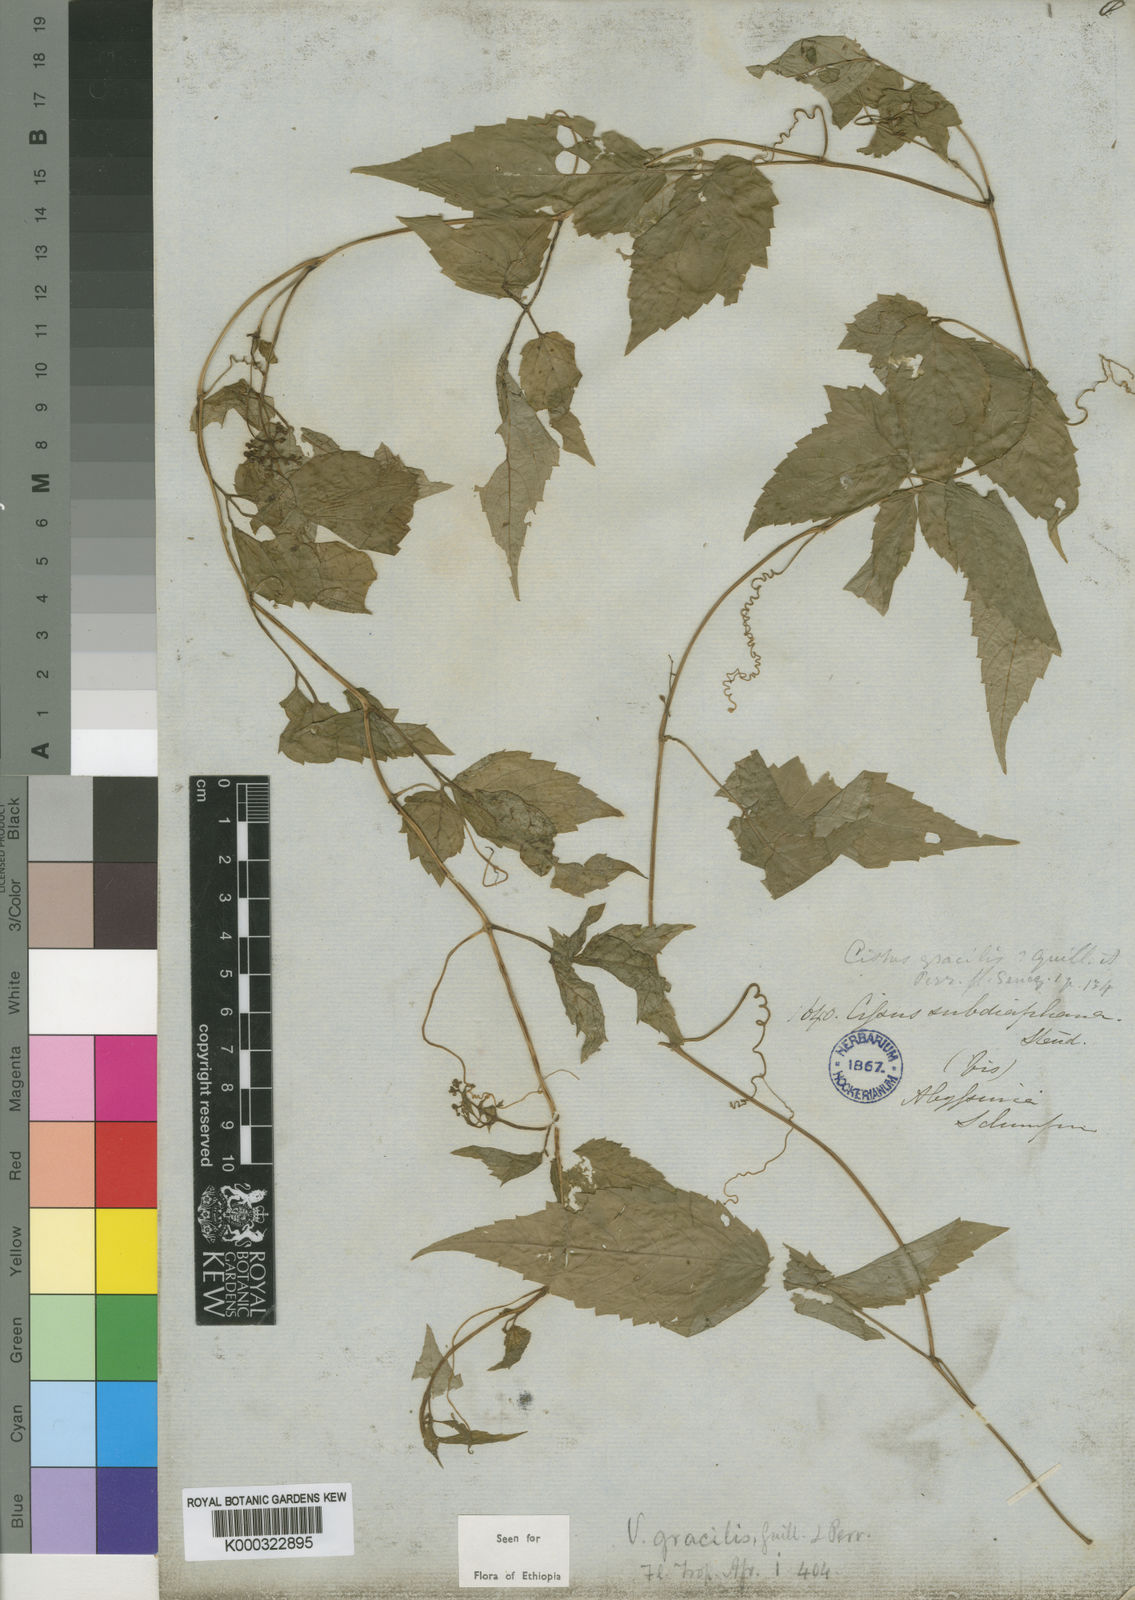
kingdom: Plantae
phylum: Tracheophyta
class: Magnoliopsida
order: Vitales
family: Vitaceae
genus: Afrocayratia
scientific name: Afrocayratia gracilis
